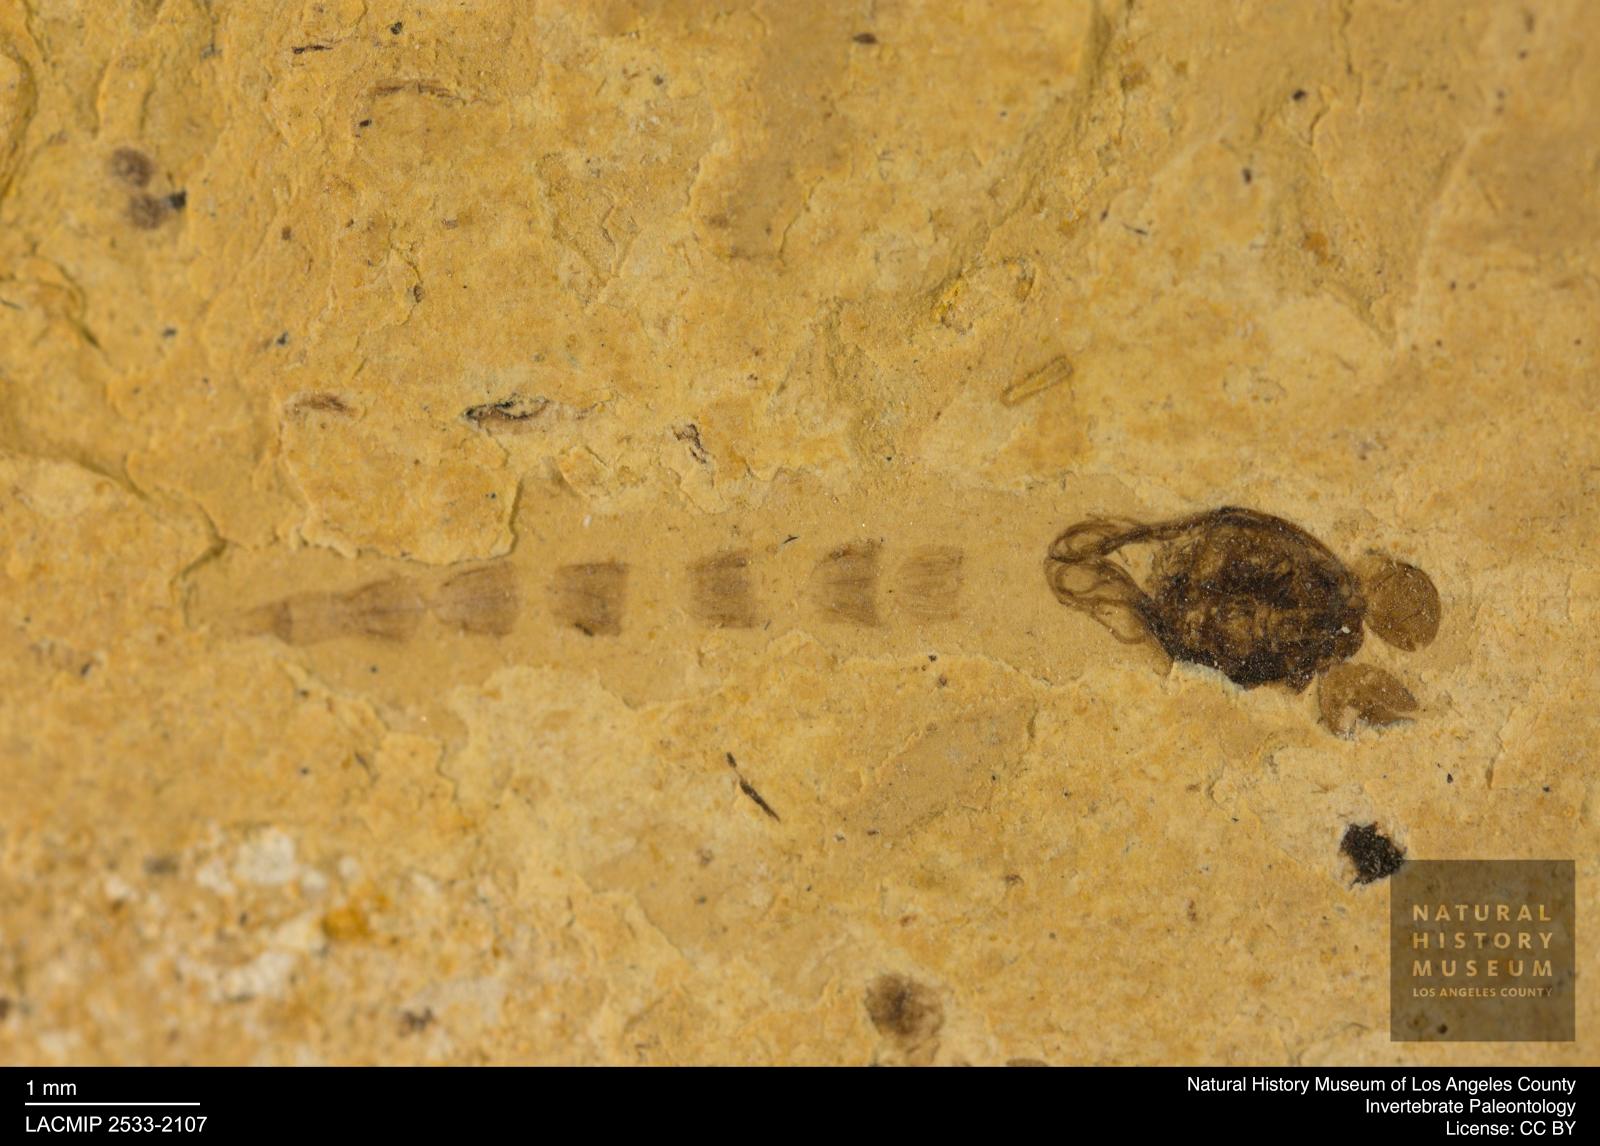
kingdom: Animalia
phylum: Arthropoda
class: Insecta
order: Diptera
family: Chironomidae
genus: Pelopiina
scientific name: Pelopiina
